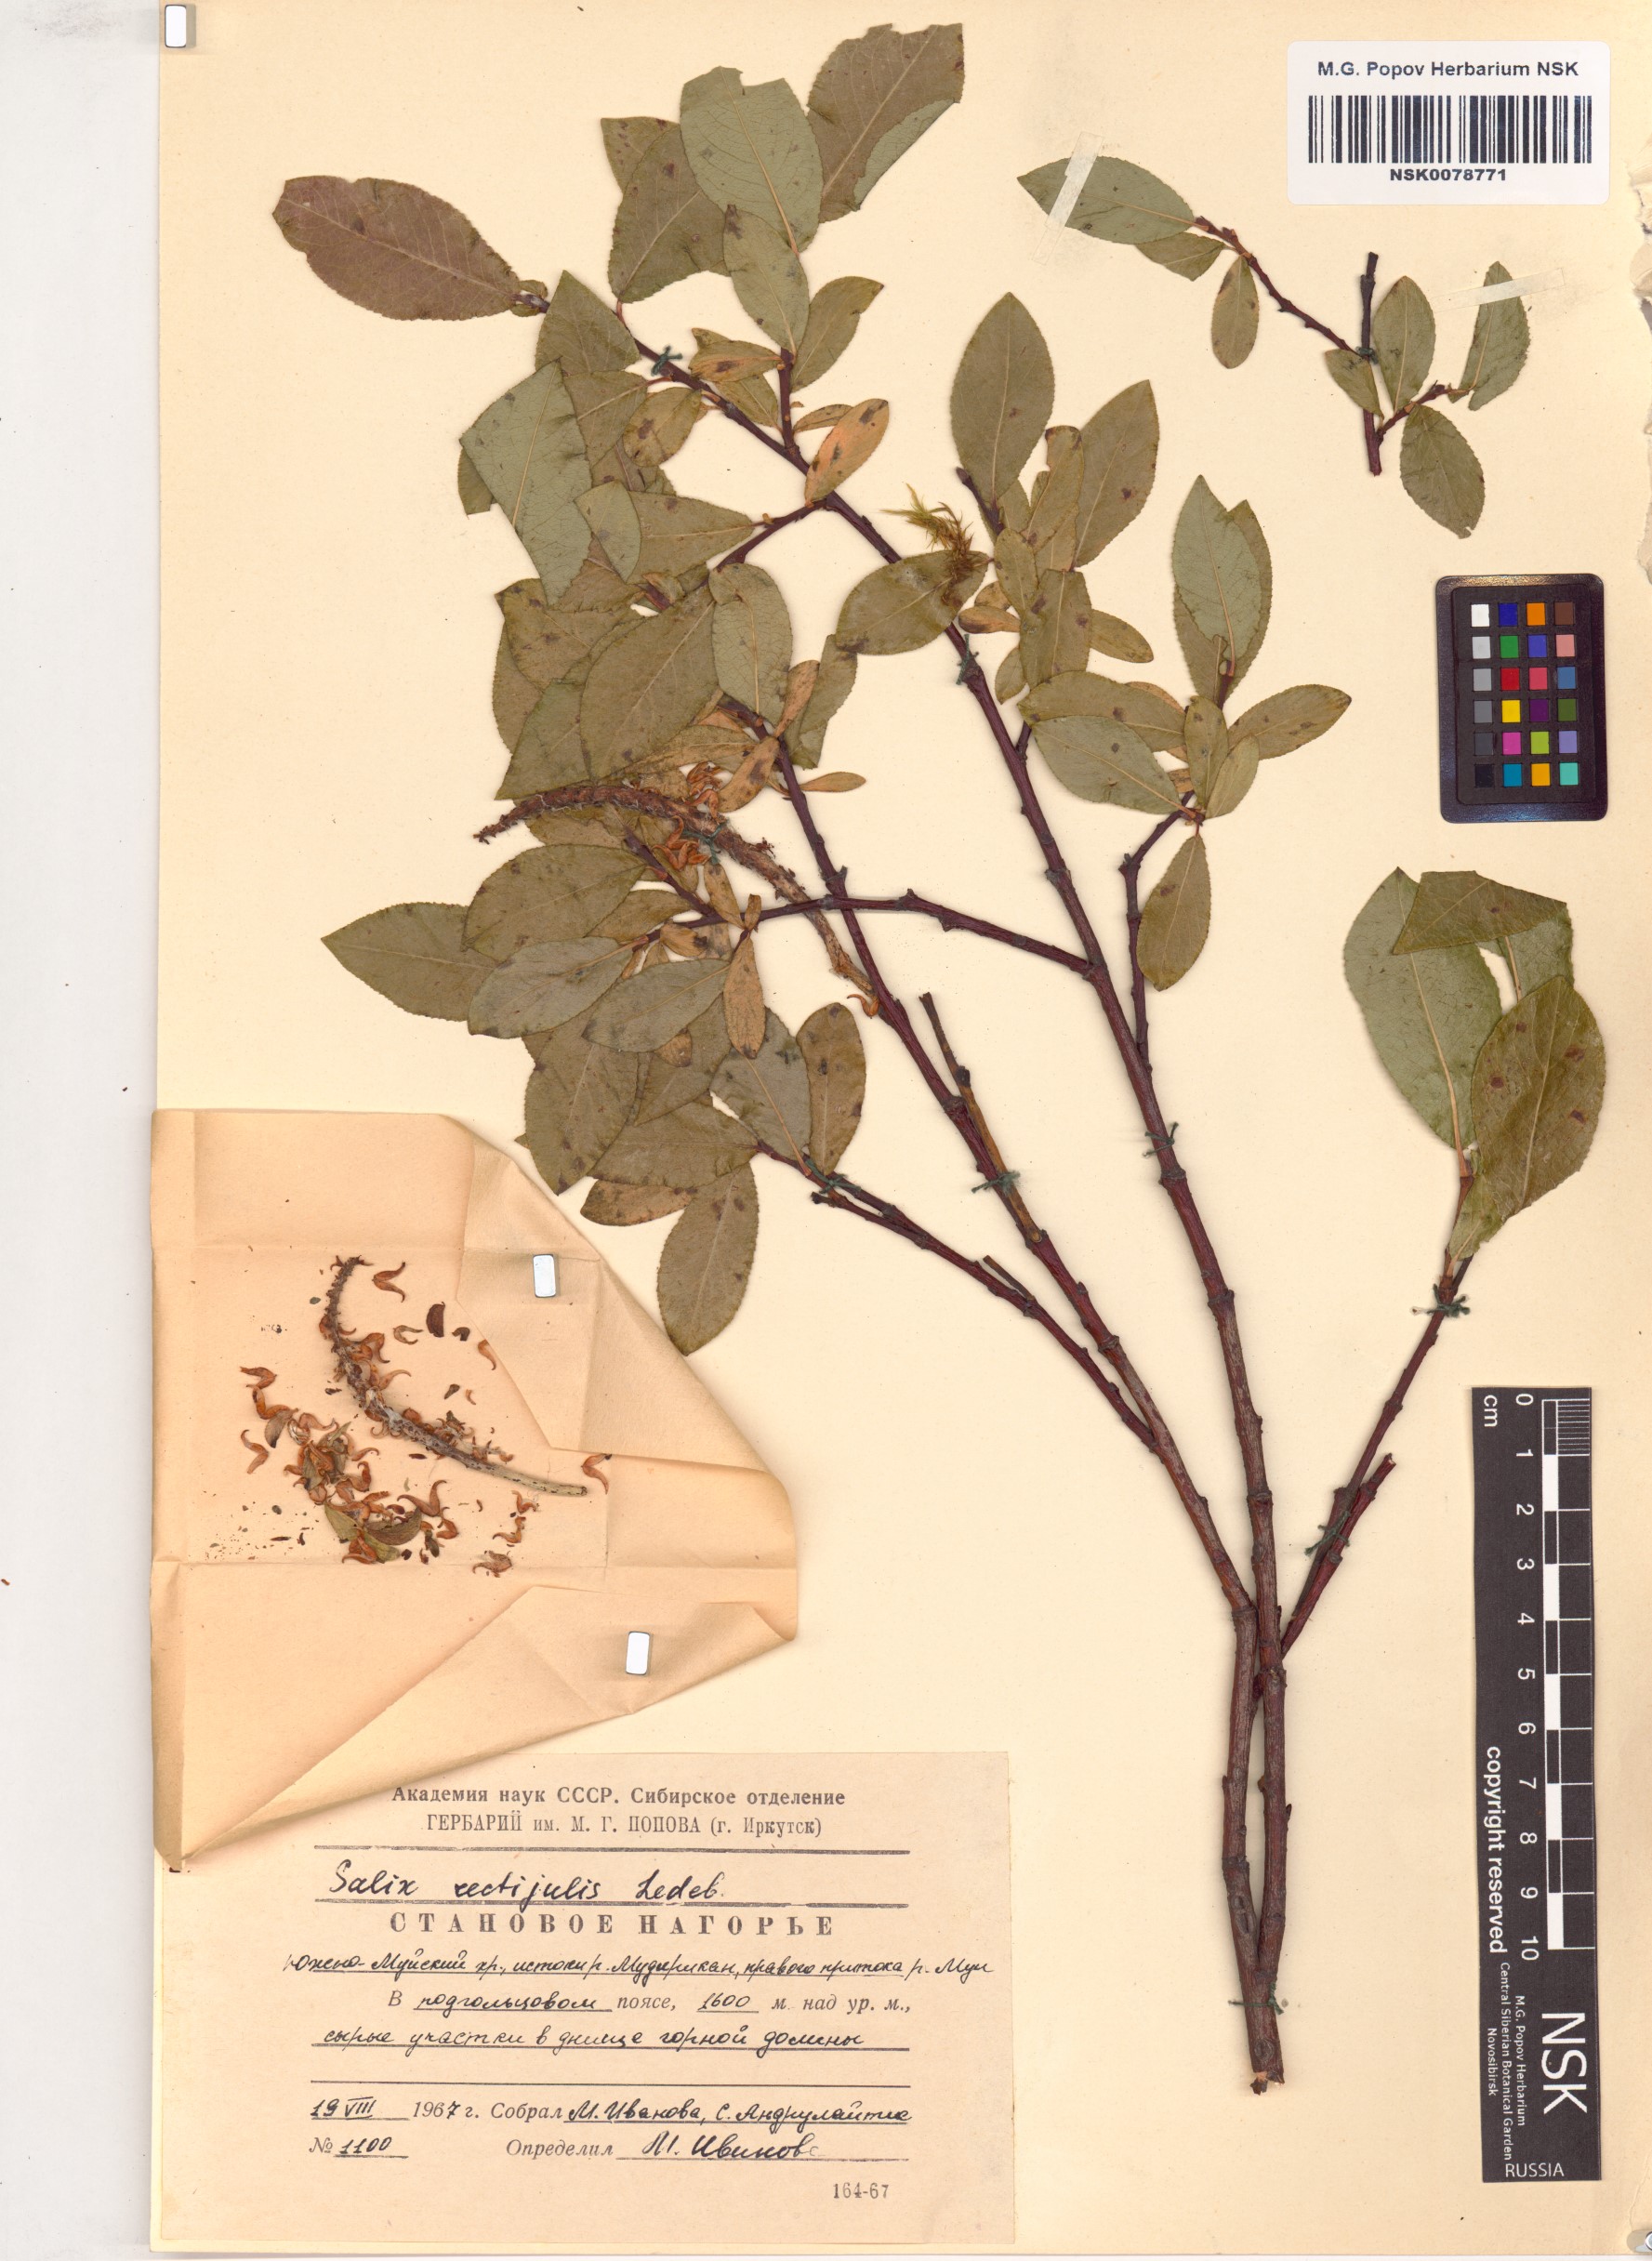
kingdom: Plantae
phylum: Tracheophyta
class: Magnoliopsida
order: Malpighiales
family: Salicaceae
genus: Salix
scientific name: Salix rectijulis
